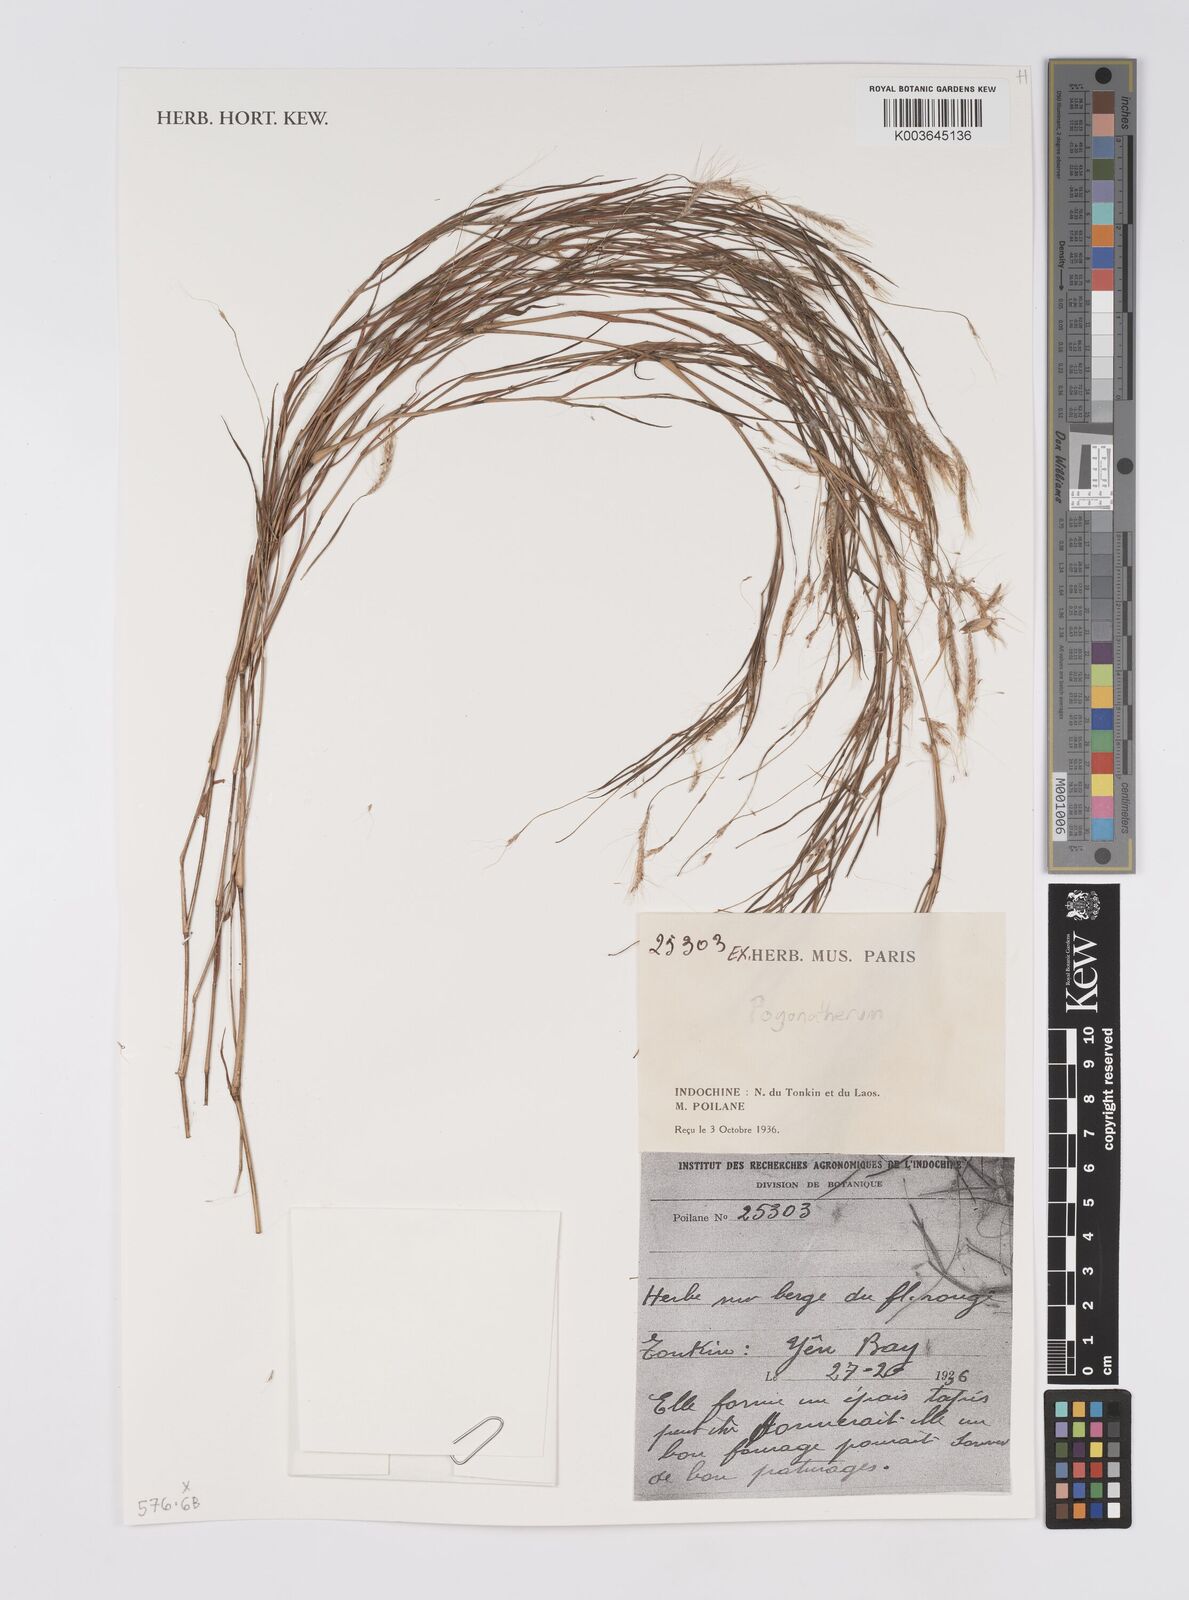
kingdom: Plantae
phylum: Tracheophyta
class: Liliopsida
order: Poales
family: Poaceae
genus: Pogonatherum
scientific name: Pogonatherum
